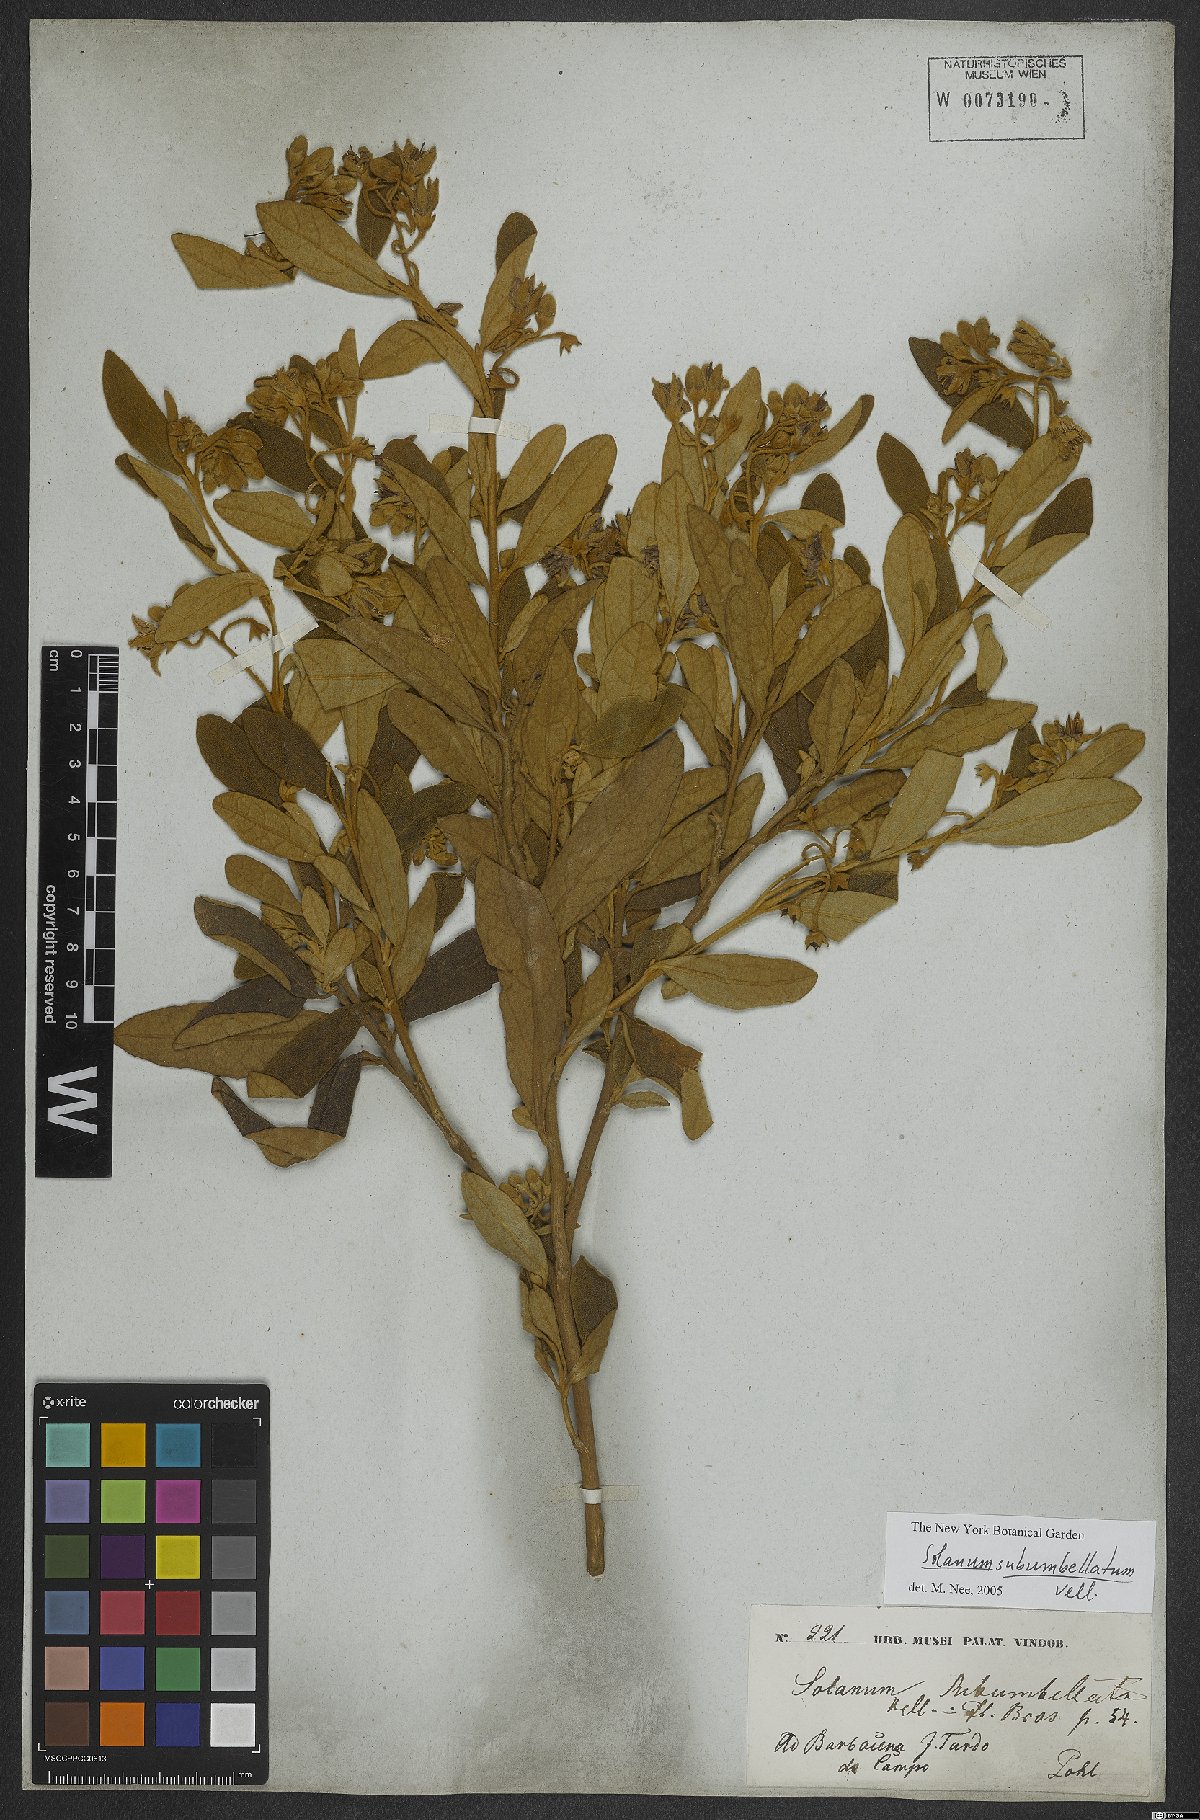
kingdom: Plantae
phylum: Tracheophyta
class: Magnoliopsida
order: Solanales
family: Solanaceae
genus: Solanum
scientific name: Solanum subumbellatum
